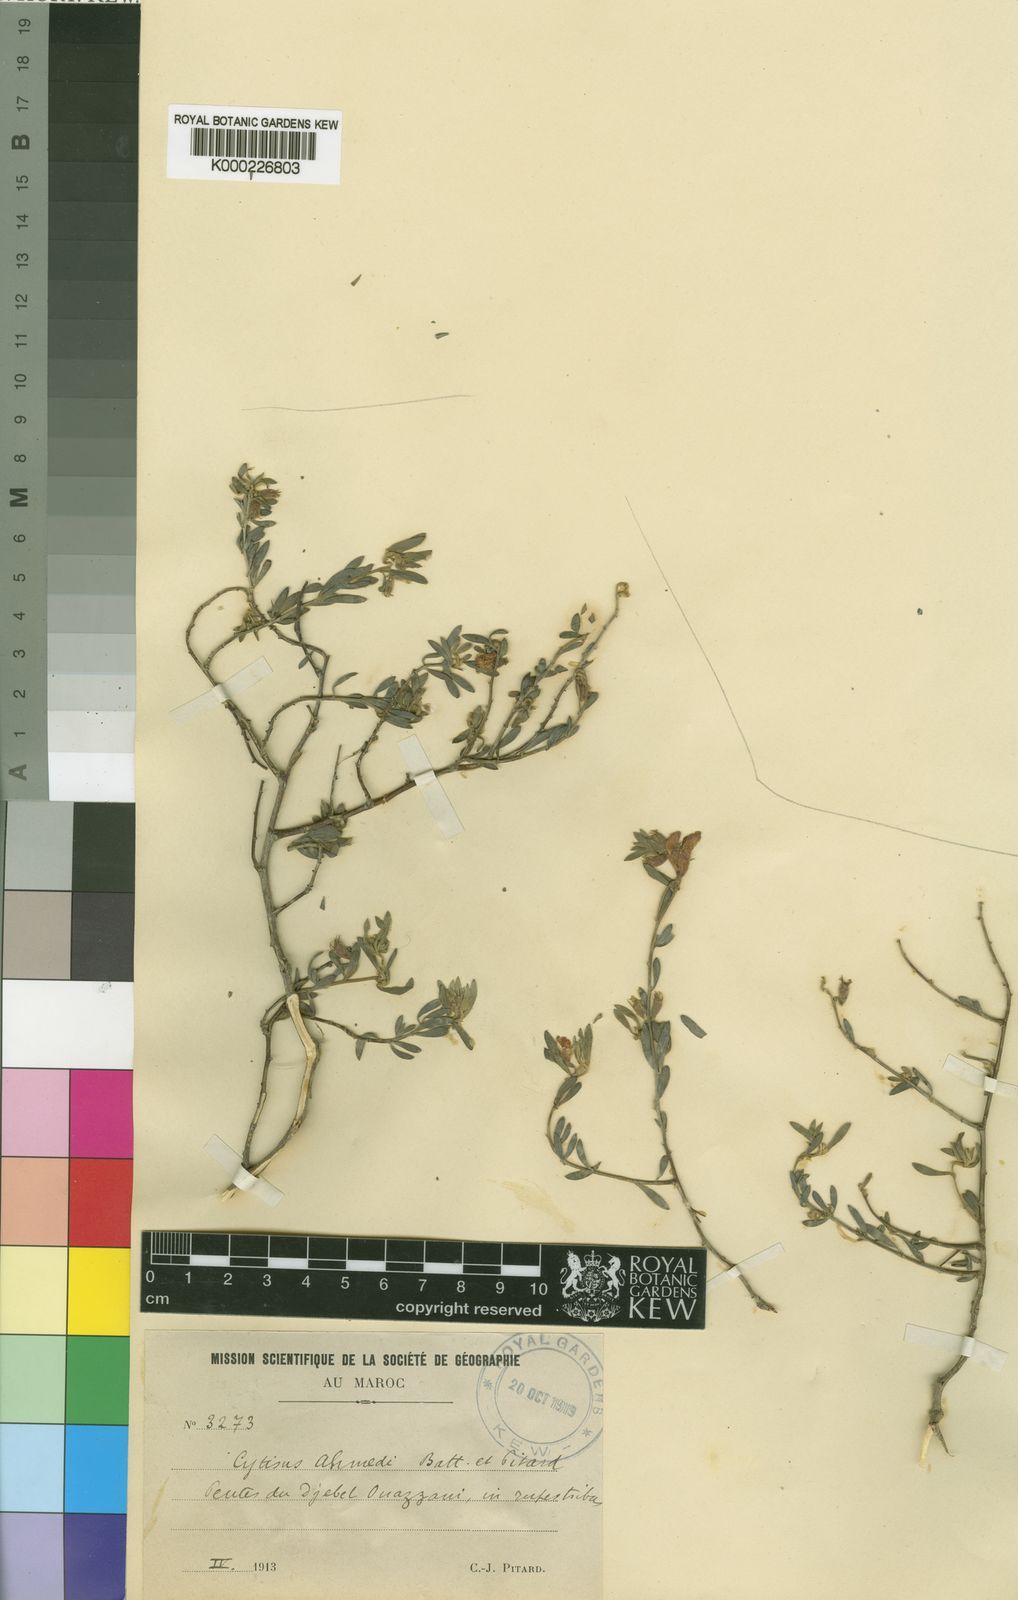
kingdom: Plantae
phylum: Tracheophyta
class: Magnoliopsida
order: Fabales
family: Fabaceae
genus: Cytisopsis
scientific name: Cytisopsis ahmedii
